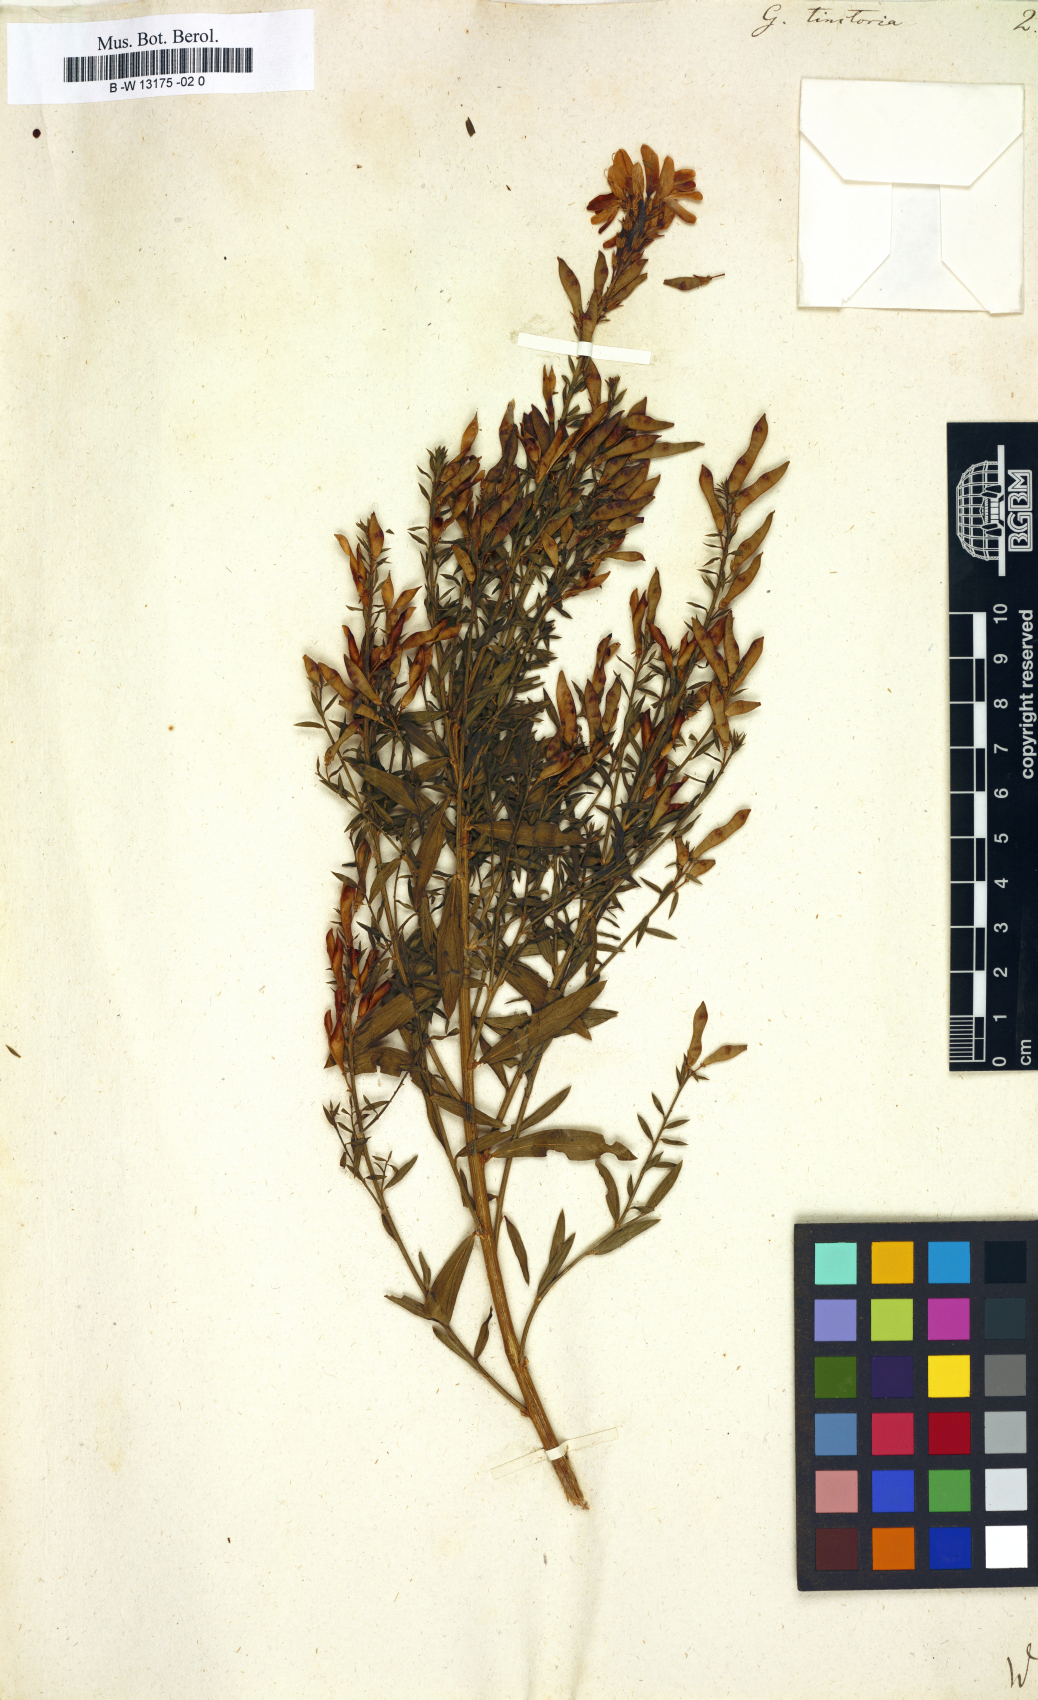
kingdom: Plantae
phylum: Tracheophyta
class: Magnoliopsida
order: Fabales
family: Fabaceae
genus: Genista
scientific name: Genista tinctoria
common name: Dyer's greenweed
